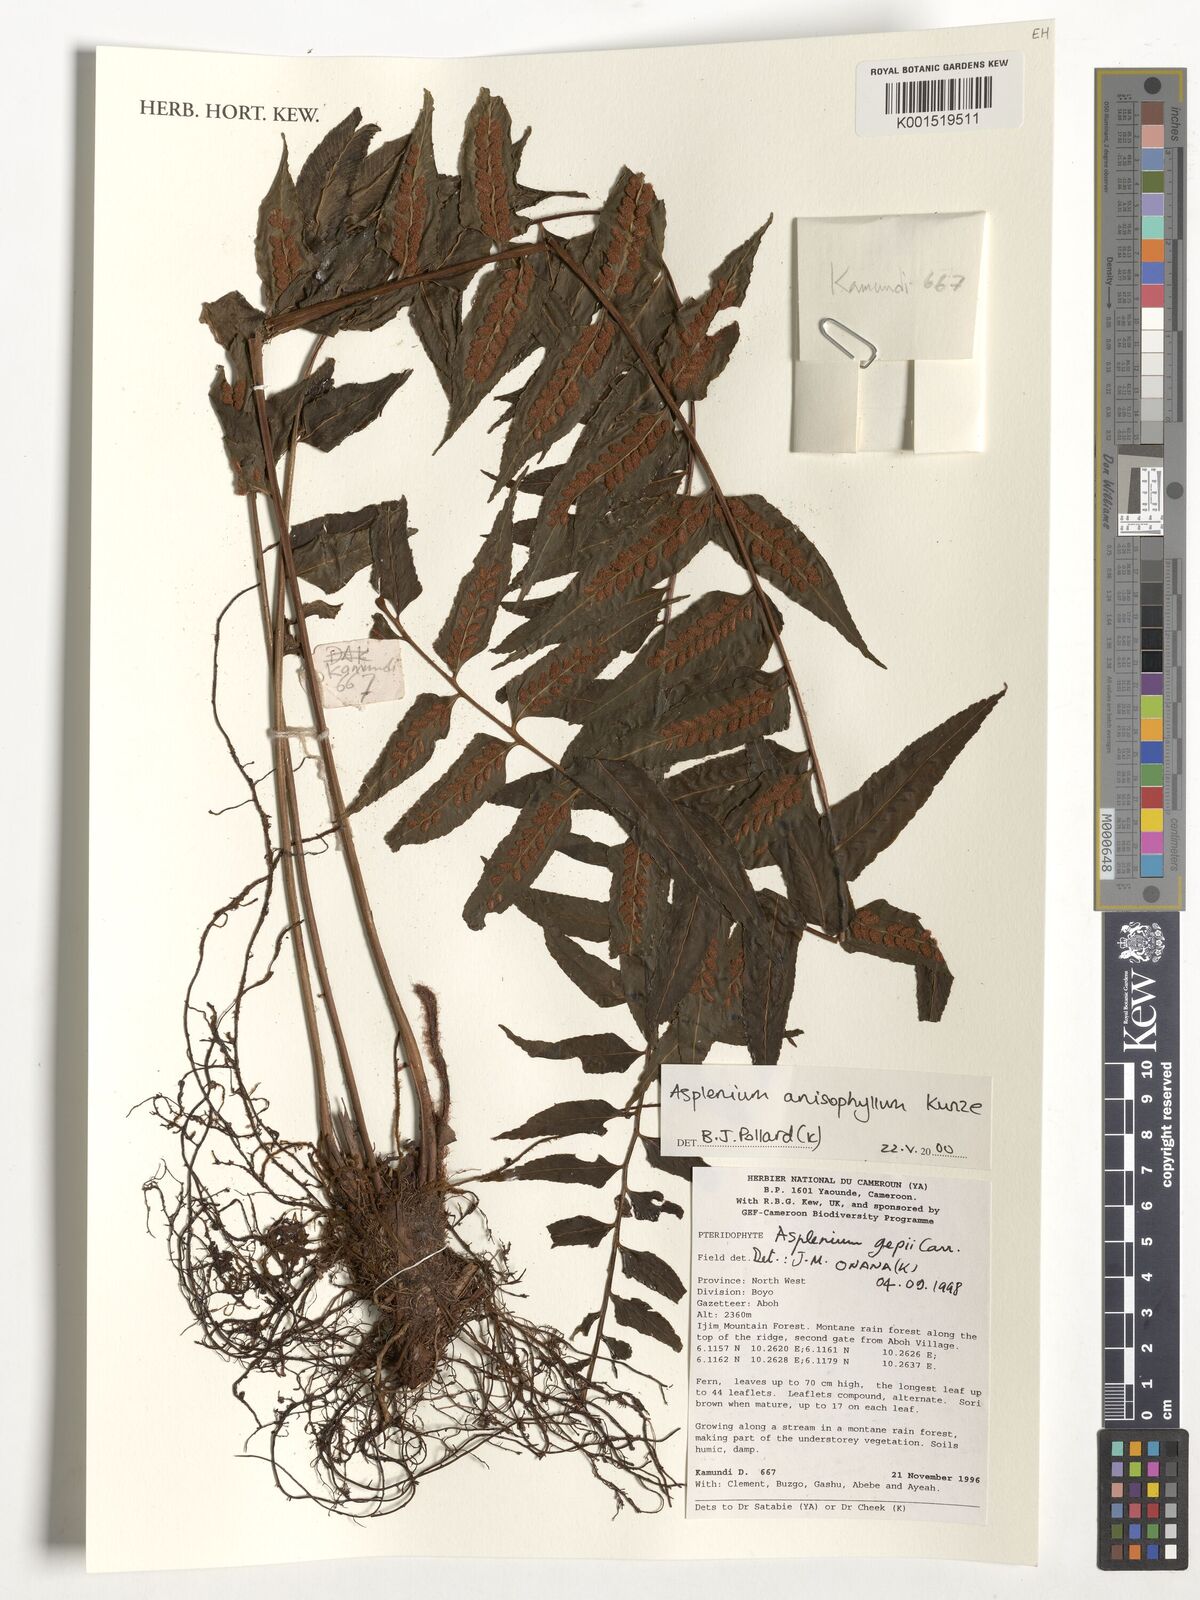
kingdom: Plantae
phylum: Tracheophyta
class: Polypodiopsida
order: Polypodiales
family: Aspleniaceae
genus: Asplenium
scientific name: Asplenium anisophyllum
